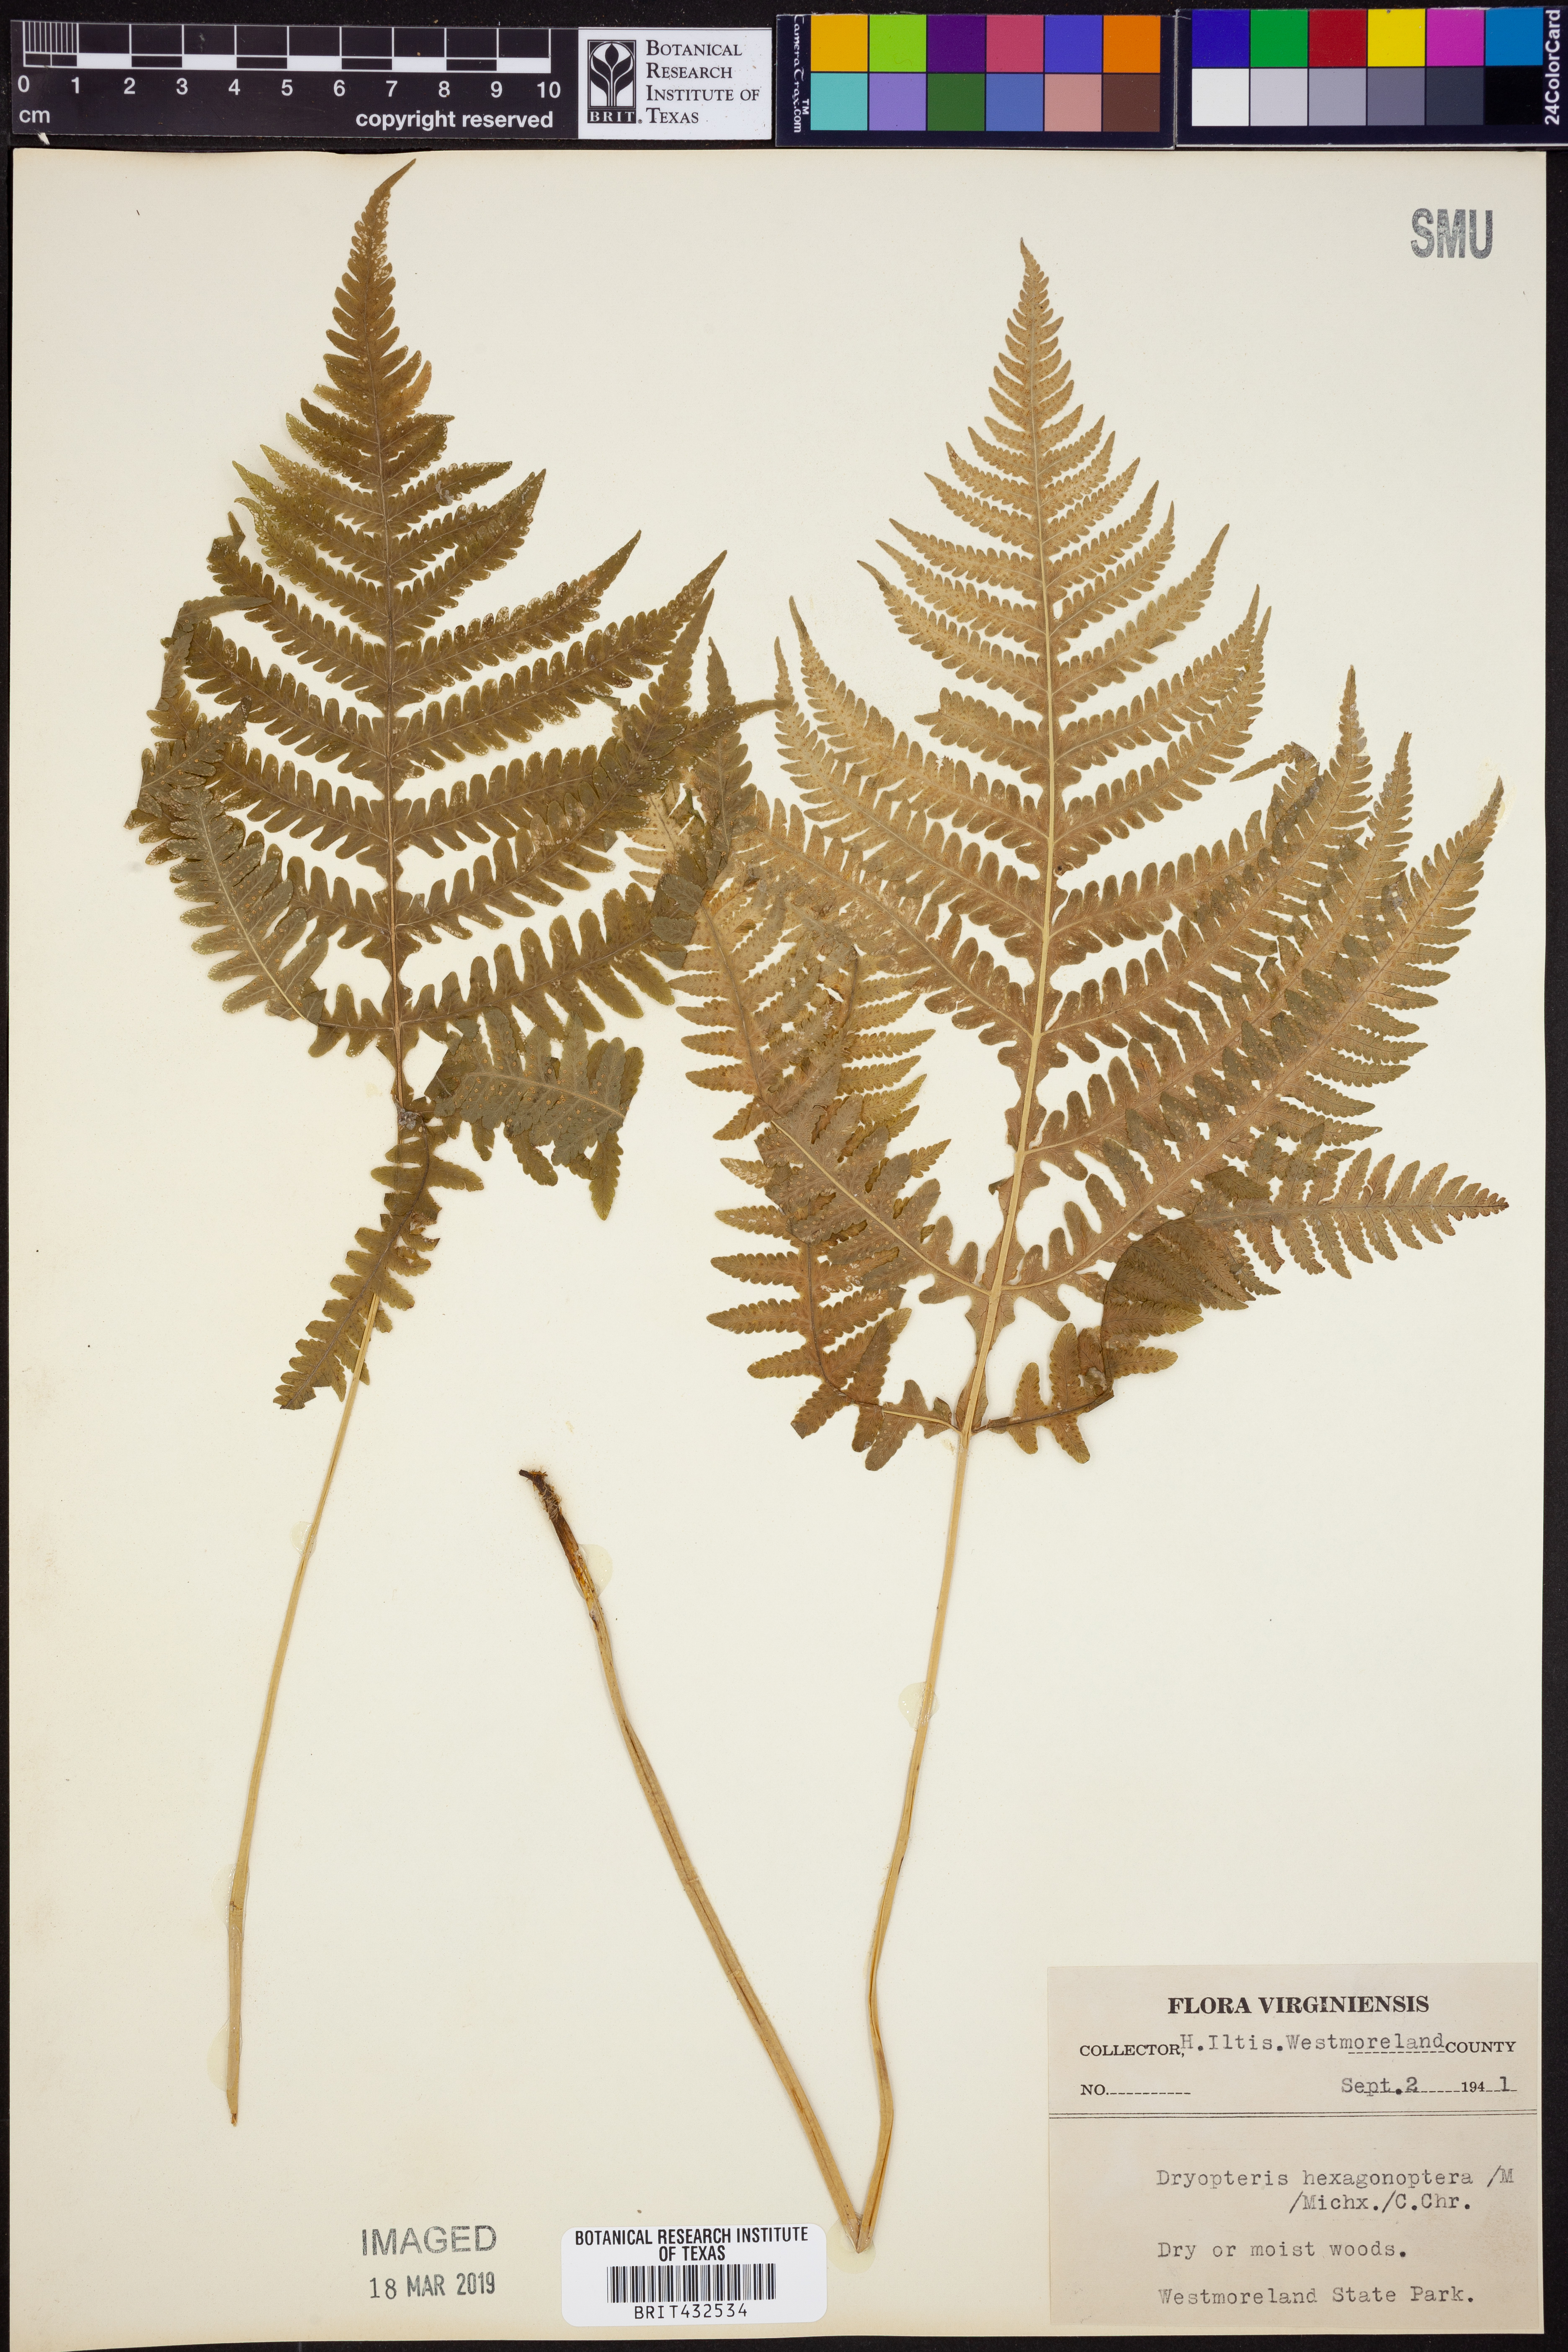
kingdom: Plantae
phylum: Tracheophyta
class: Polypodiopsida
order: Polypodiales
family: Dryopteridaceae
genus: Dryopteris
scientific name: Dryopteris hexagonaptera
